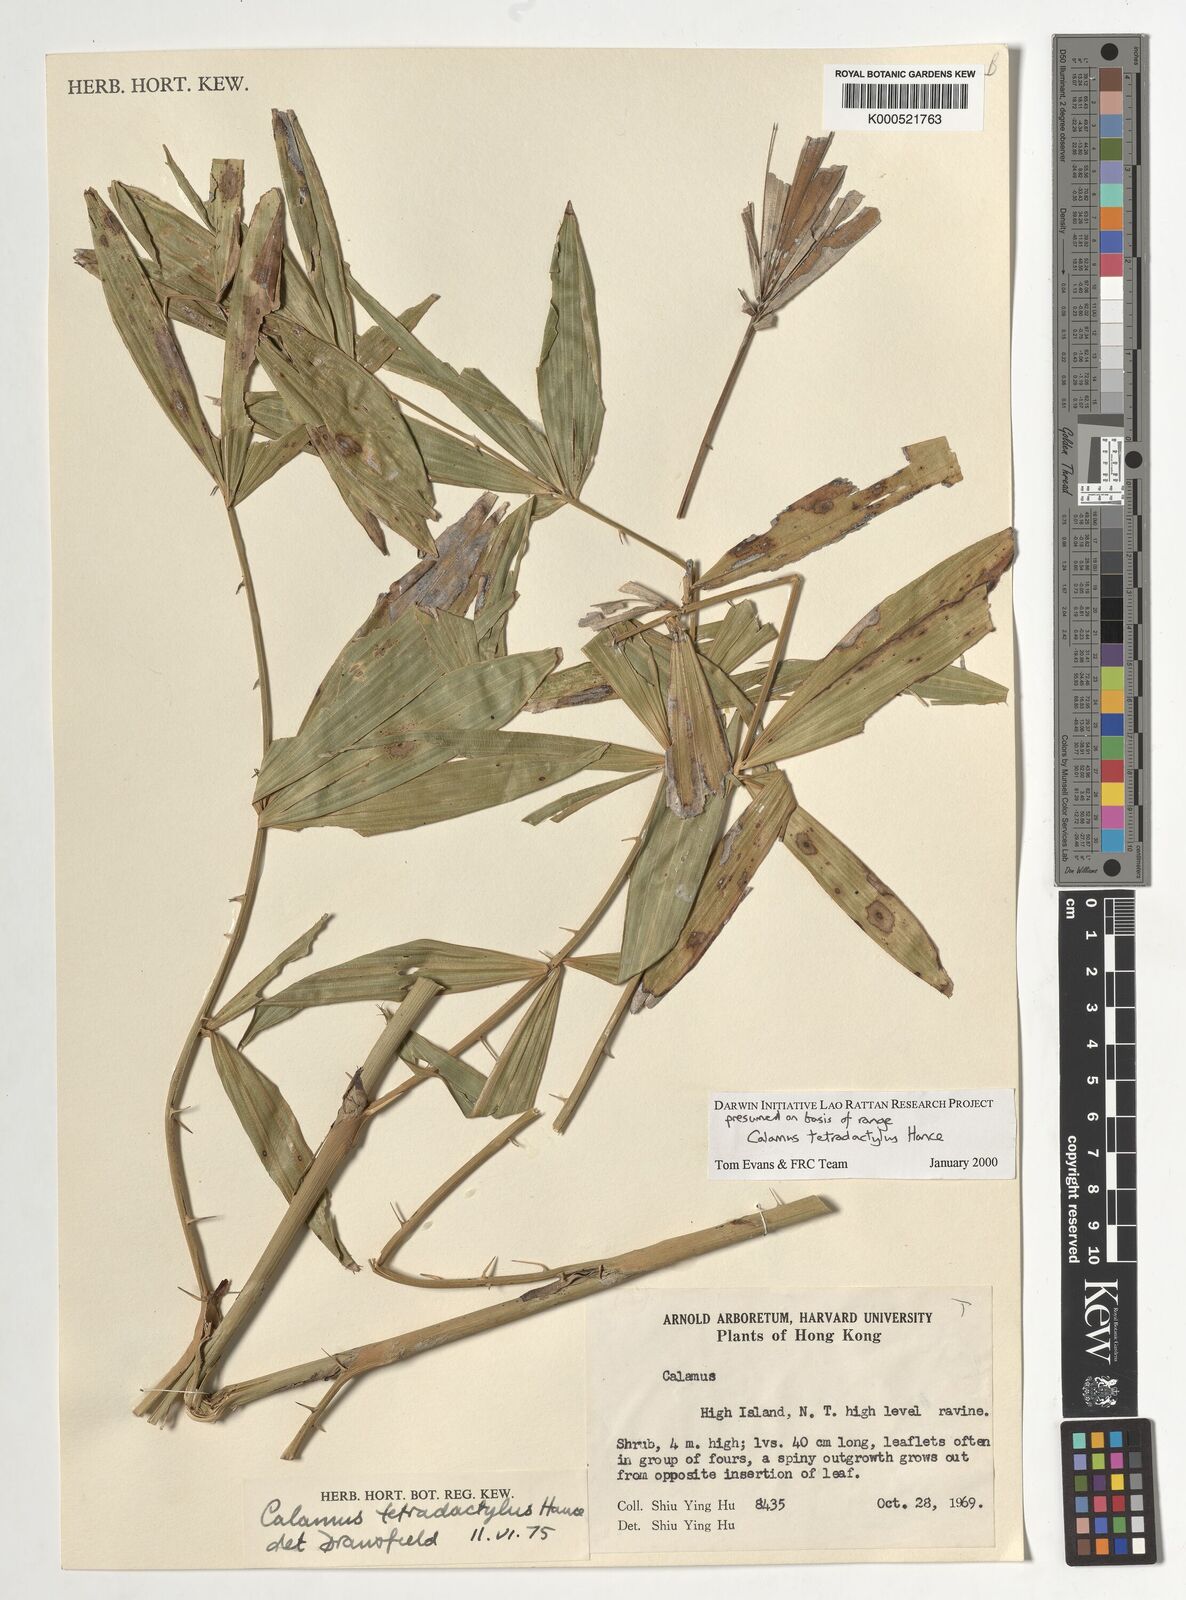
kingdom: Plantae
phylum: Tracheophyta
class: Liliopsida
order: Arecales
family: Arecaceae
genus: Calamus
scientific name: Calamus tetradactylus
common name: White rattan
